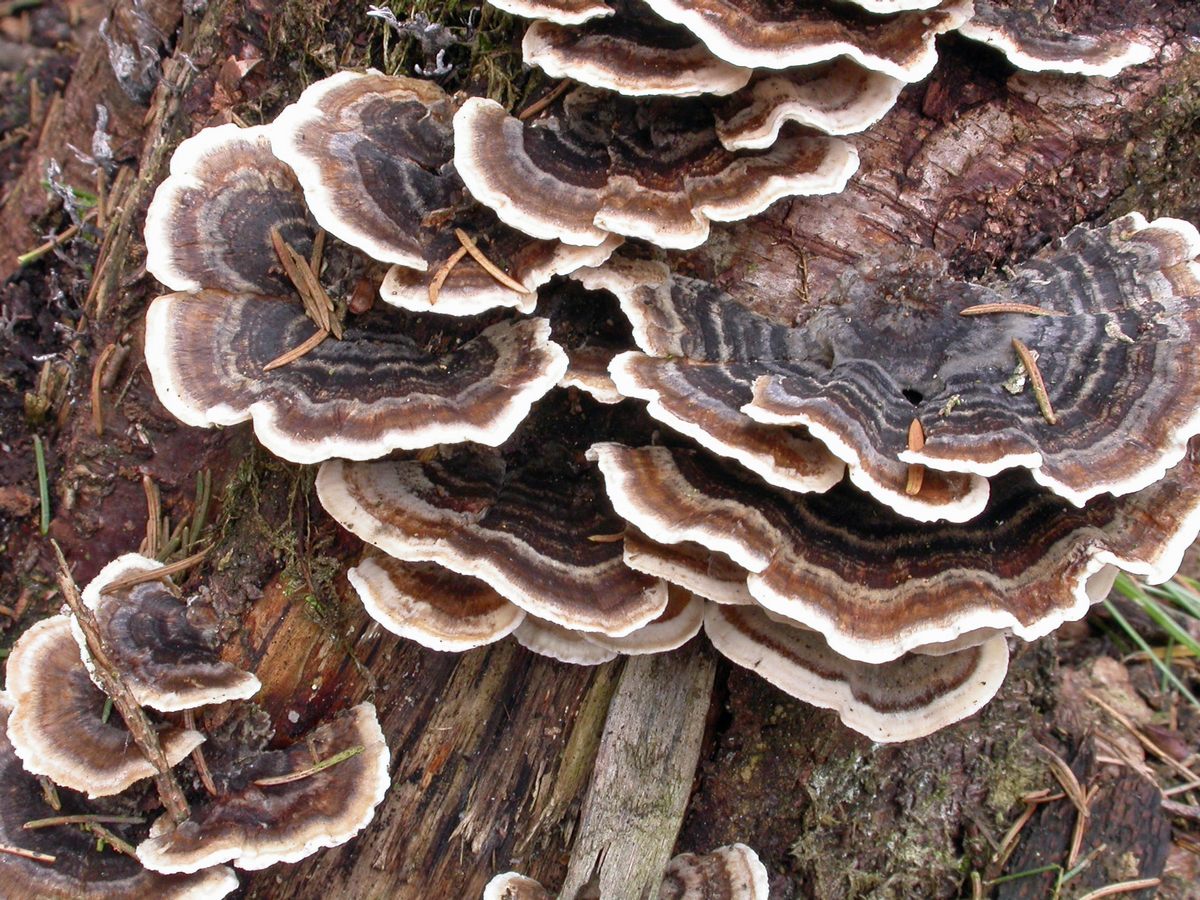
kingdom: Fungi
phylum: Basidiomycota
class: Agaricomycetes
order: Polyporales
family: Polyporaceae
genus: Trametes
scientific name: Trametes versicolor
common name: broget læderporesvamp
